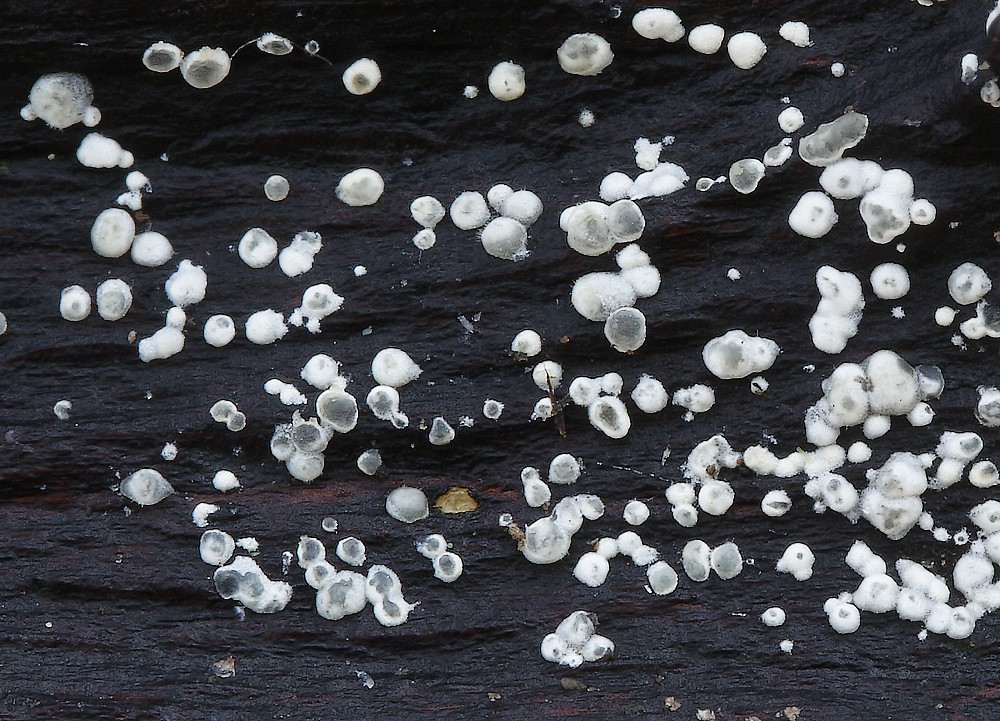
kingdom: Fungi
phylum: Ascomycota
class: Sordariomycetes
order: Hypocreales
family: Hypocreaceae
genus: Trichoderma
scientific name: Trichoderma
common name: kødkerne
